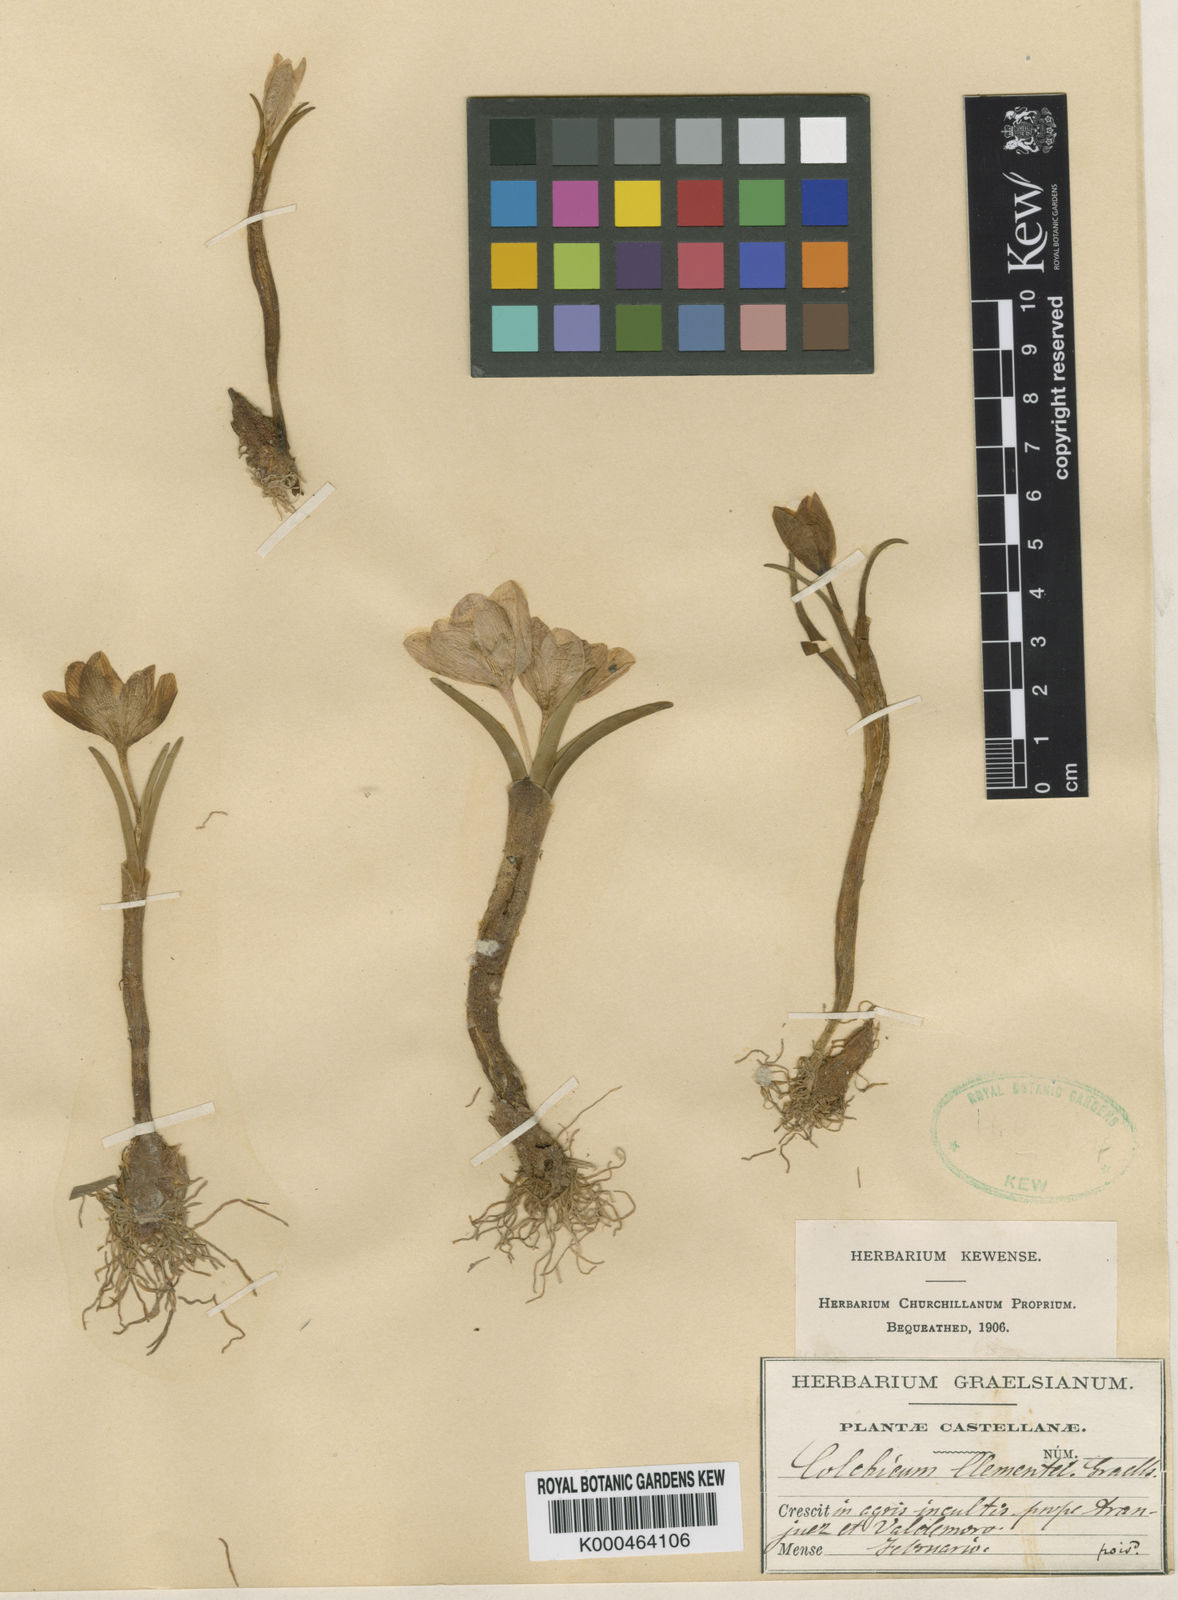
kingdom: Plantae
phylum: Tracheophyta
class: Liliopsida
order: Liliales
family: Colchicaceae
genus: Colchicum
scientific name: Colchicum triphyllum
